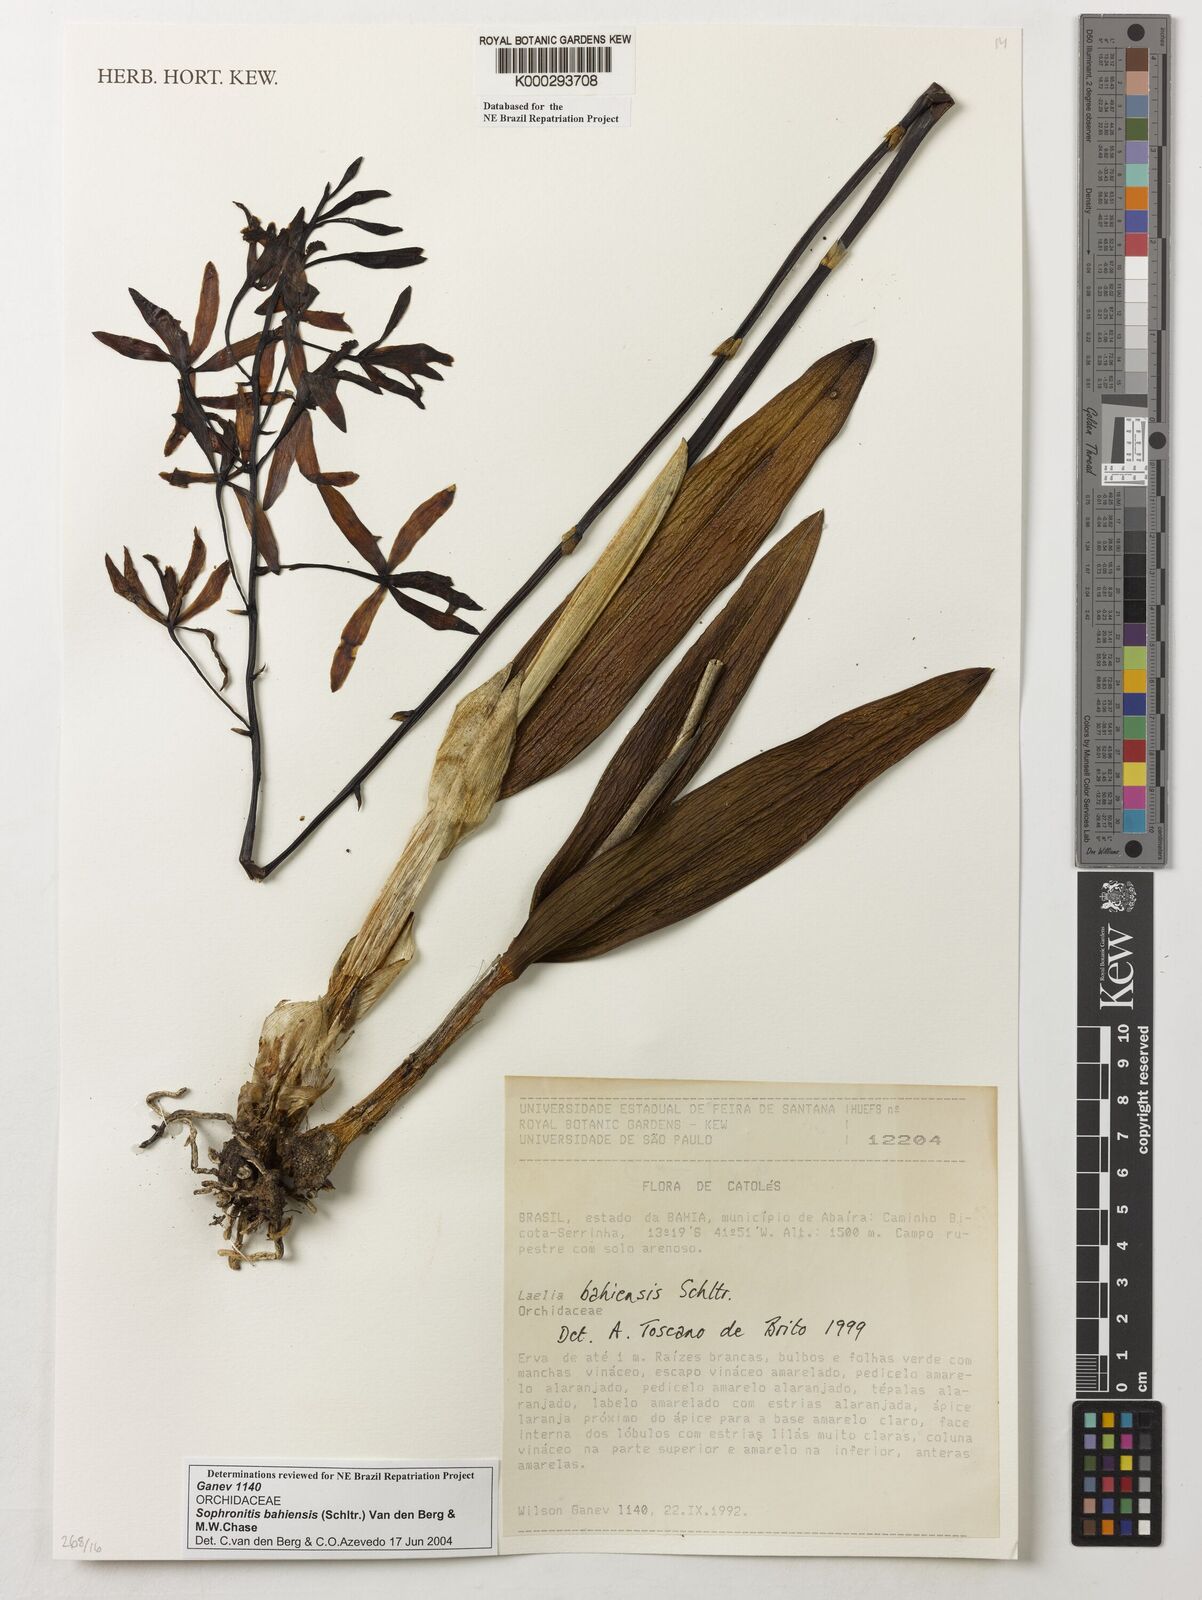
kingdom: Plantae
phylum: Tracheophyta
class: Liliopsida
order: Asparagales
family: Orchidaceae
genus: Cattleya
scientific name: Cattleya luetzelburgii
